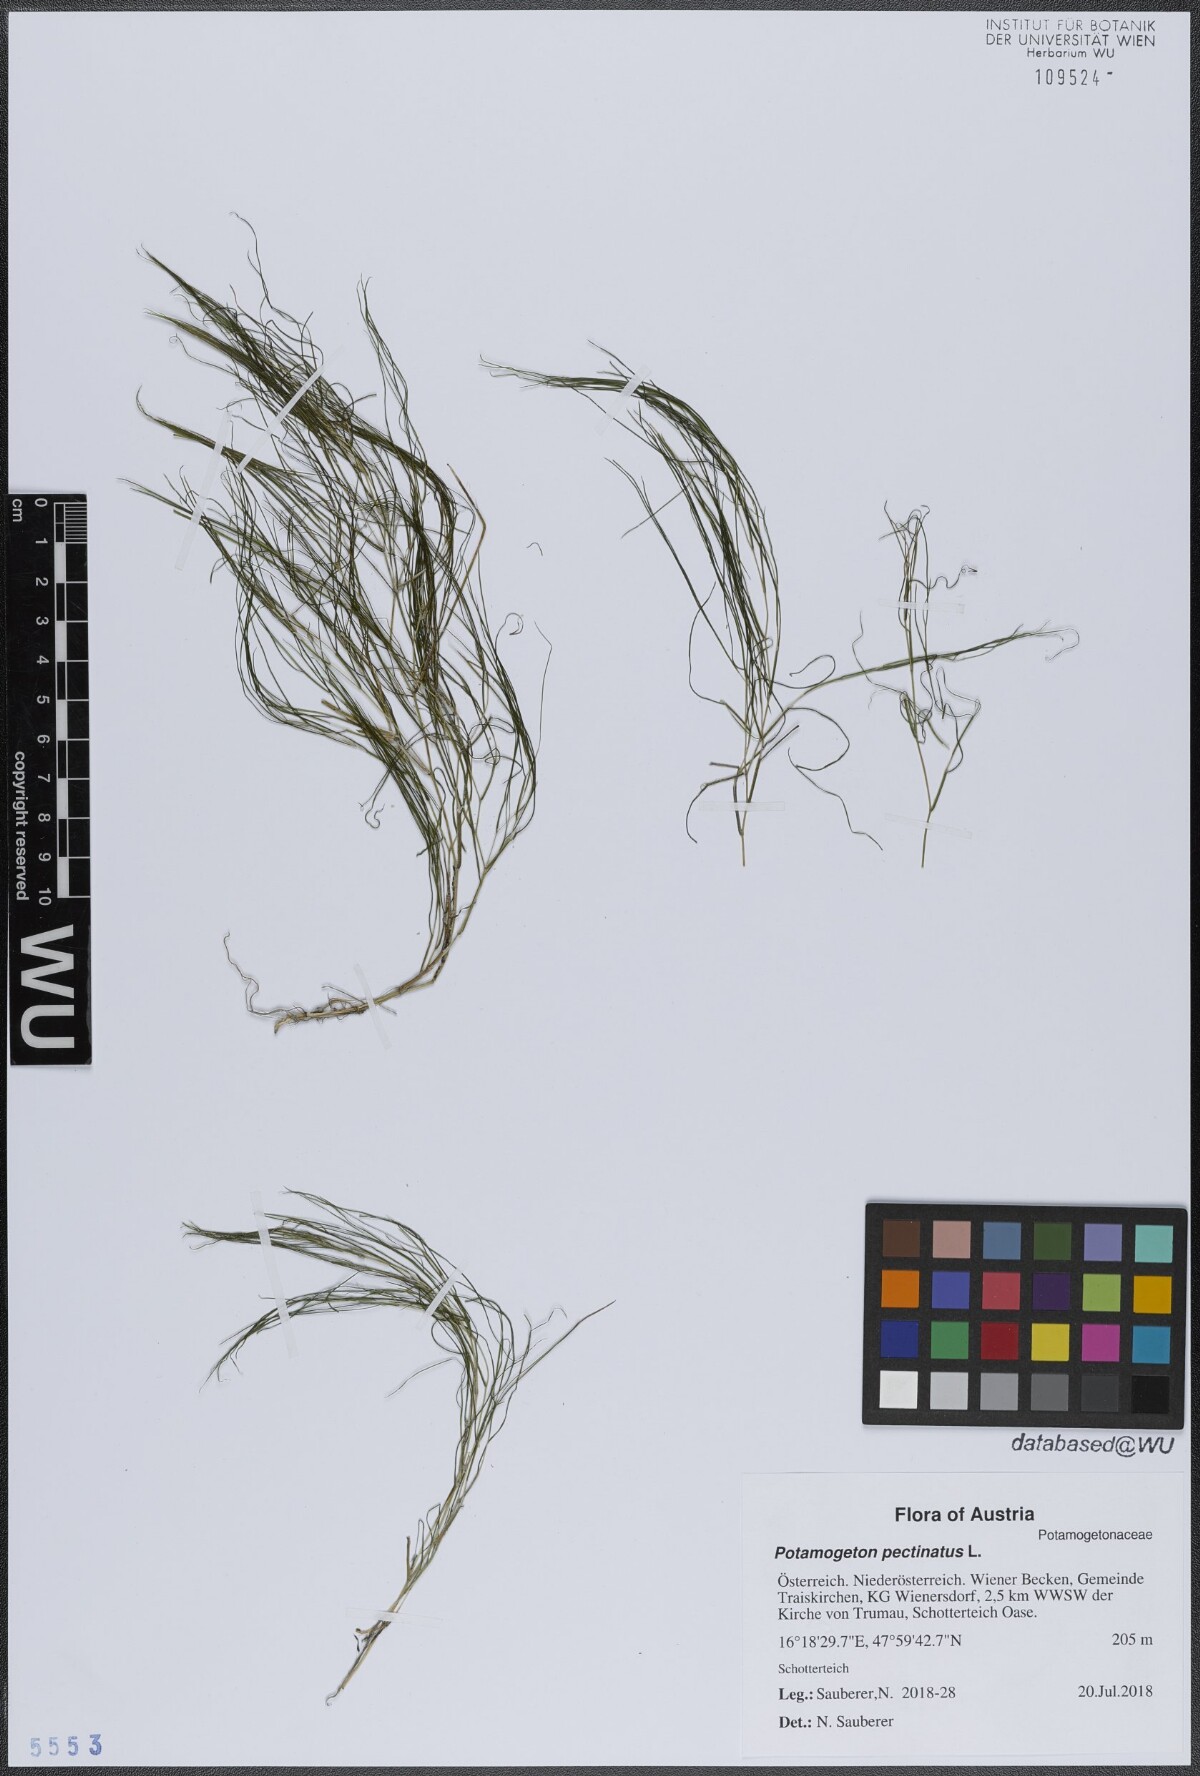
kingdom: Plantae
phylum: Tracheophyta
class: Liliopsida
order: Alismatales
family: Potamogetonaceae
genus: Stuckenia
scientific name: Stuckenia pectinata
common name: Sago pondweed
